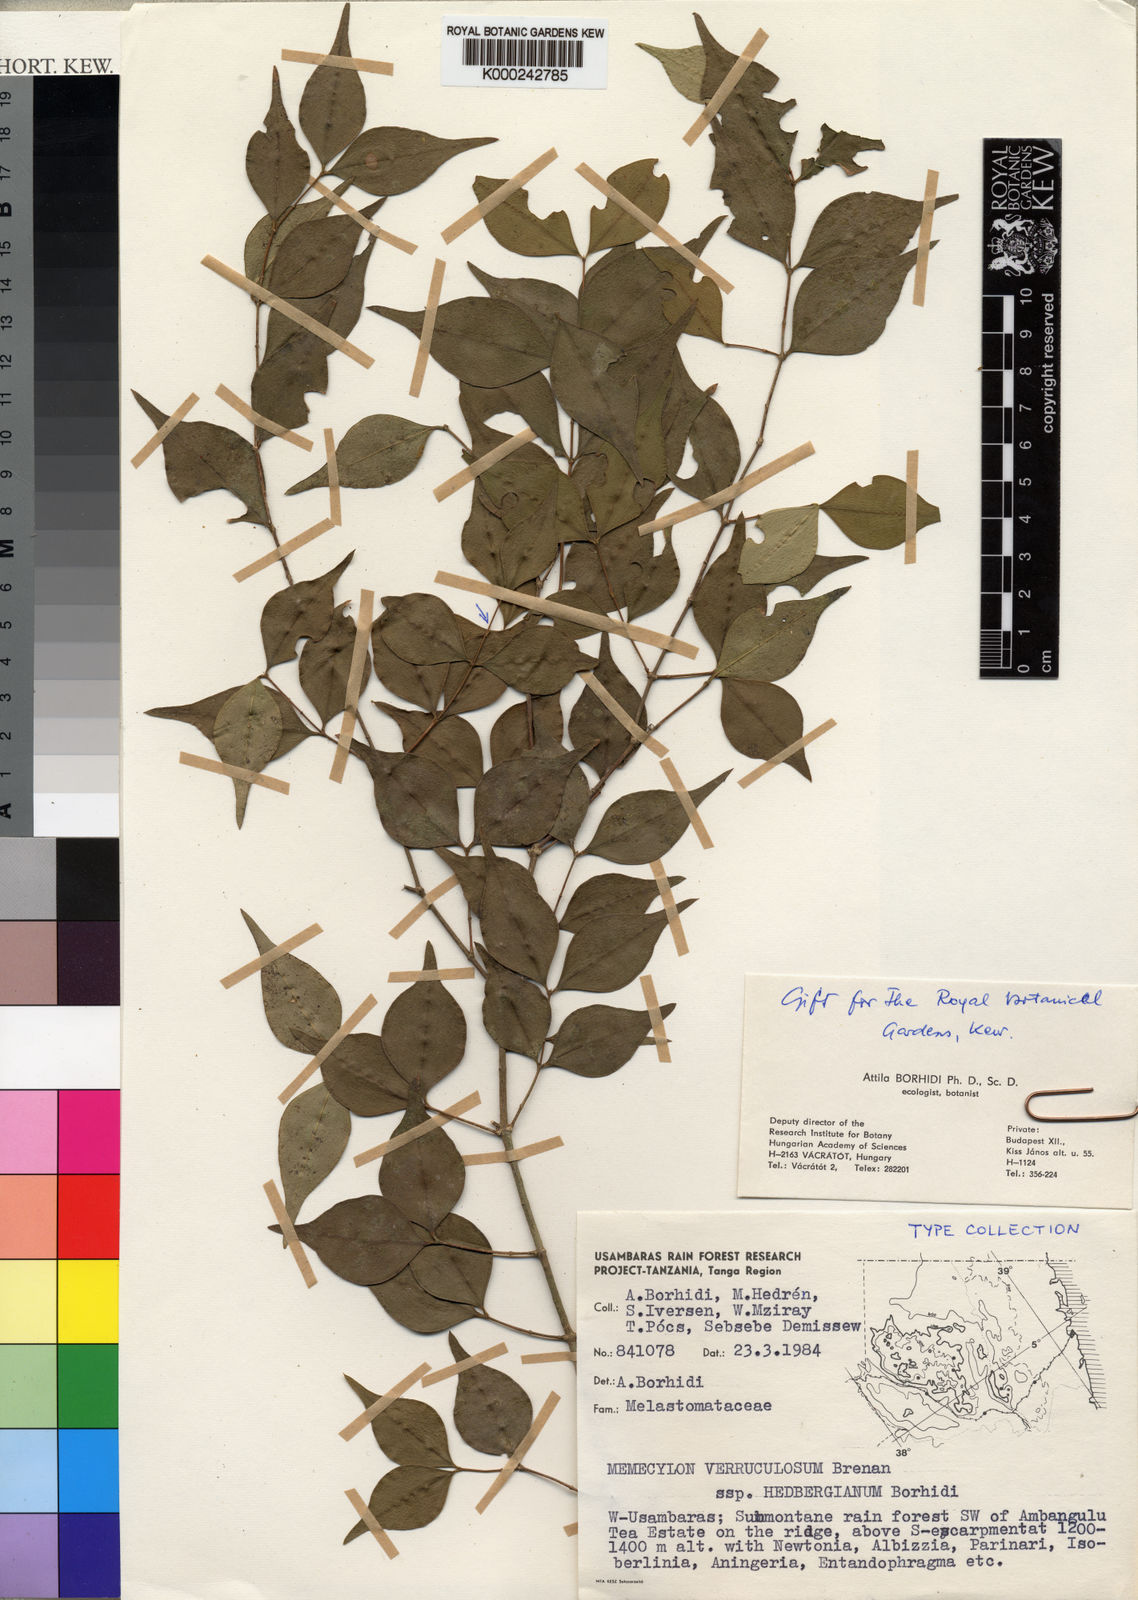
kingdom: Plantae
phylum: Tracheophyta
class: Magnoliopsida
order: Myrtales
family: Melastomataceae
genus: Memecylon
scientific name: Memecylon verruculosum
